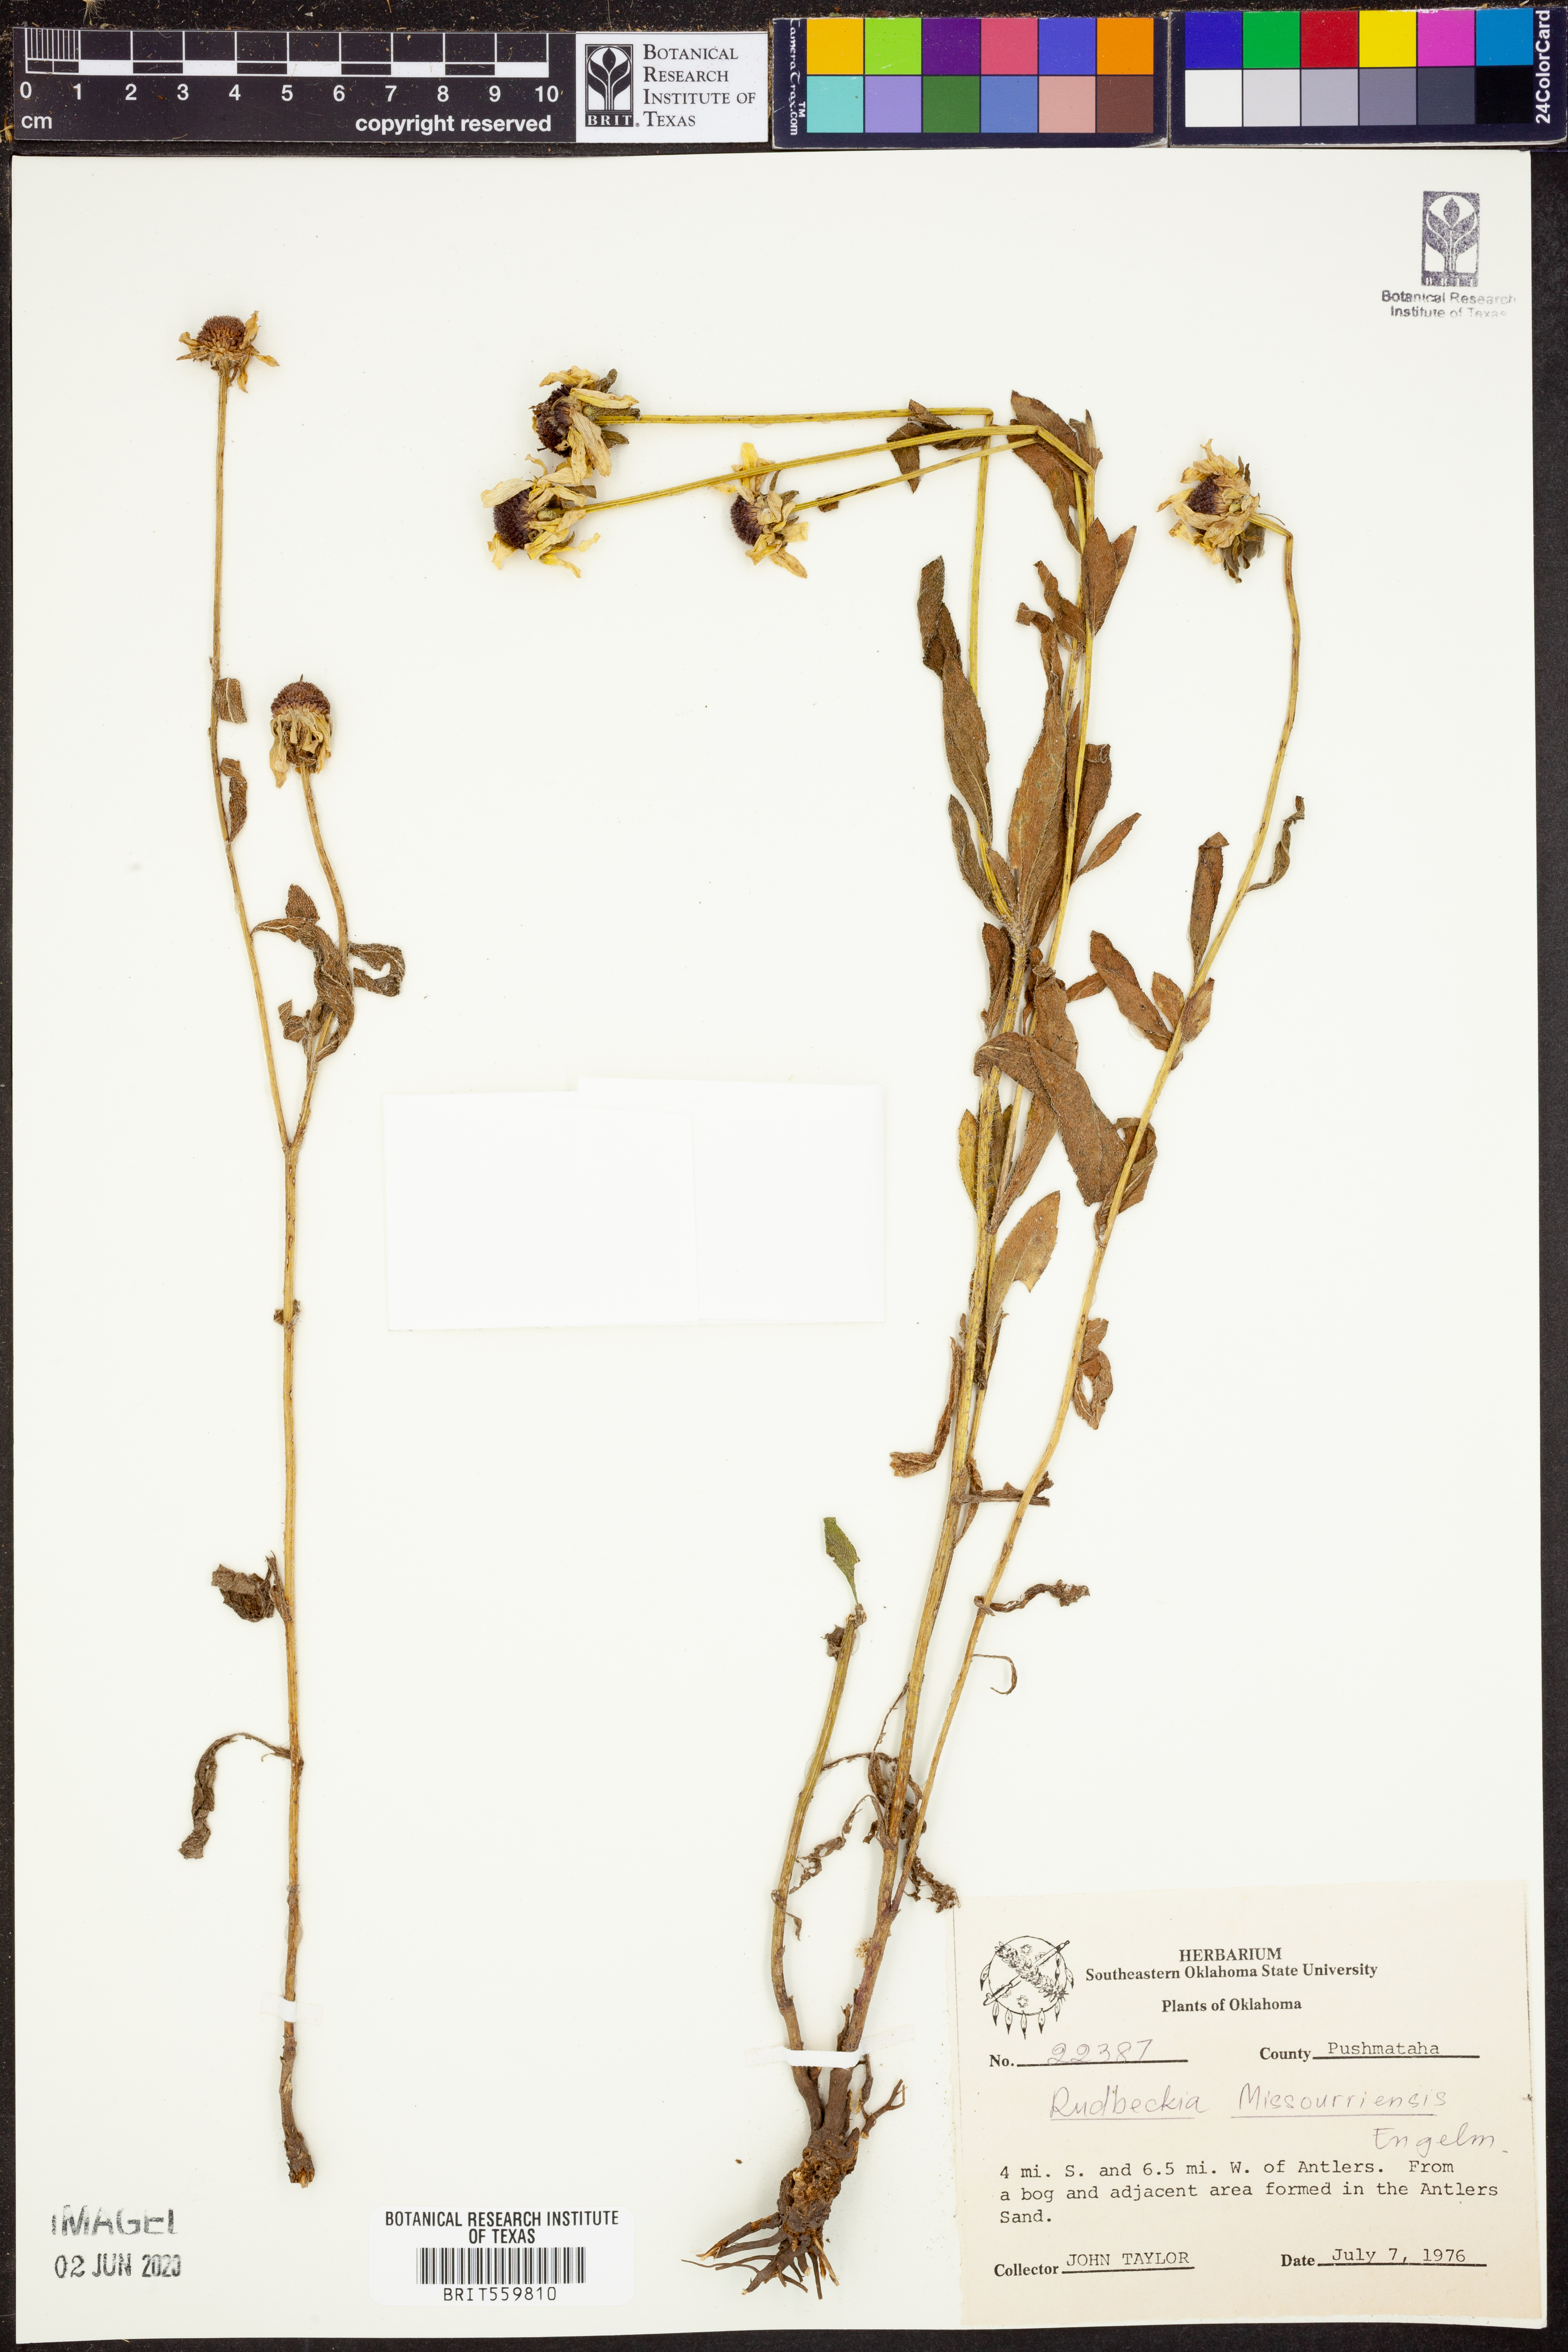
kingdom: Plantae
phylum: Tracheophyta
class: Magnoliopsida
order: Asterales
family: Asteraceae
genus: Rudbeckia
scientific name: Rudbeckia missouriensis
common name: Missouri coneflower
